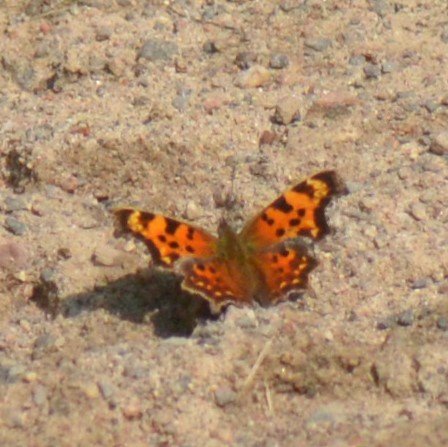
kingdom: Animalia
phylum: Arthropoda
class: Insecta
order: Lepidoptera
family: Nymphalidae
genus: Polygonia
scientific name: Polygonia faunus
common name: Green Comma
